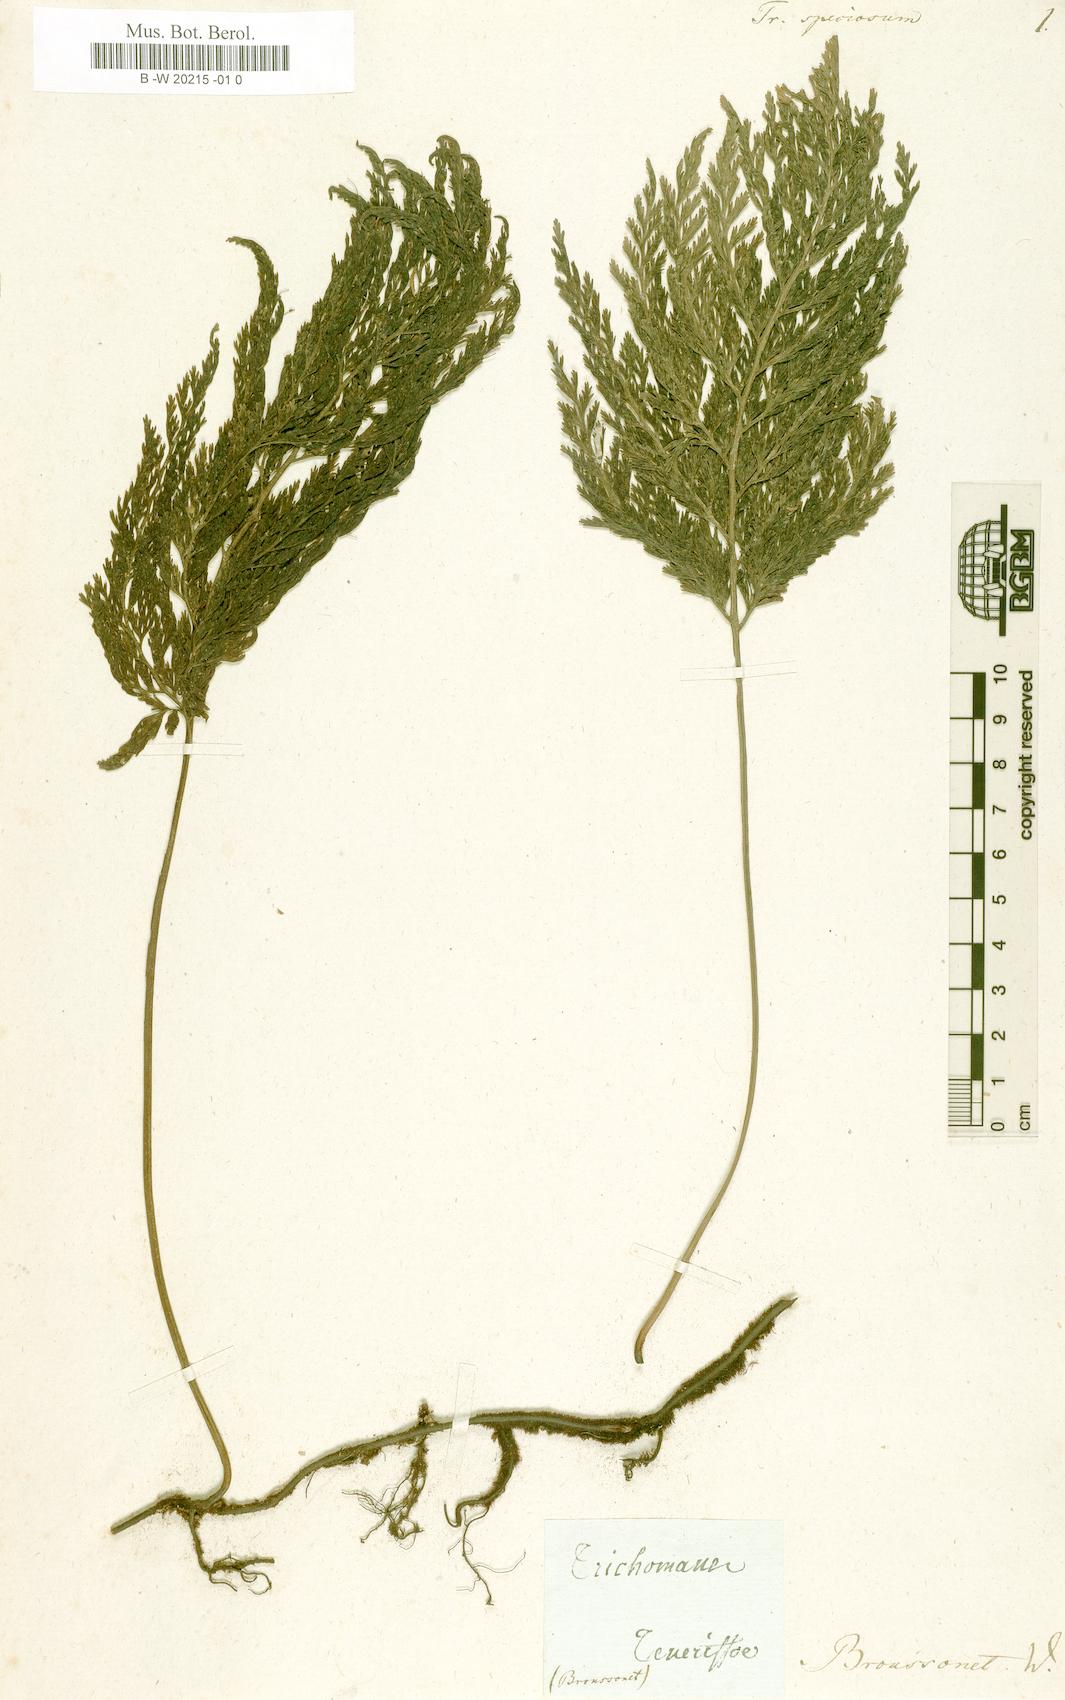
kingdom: Plantae
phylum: Tracheophyta
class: Polypodiopsida
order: Hymenophyllales
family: Hymenophyllaceae
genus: Vandenboschia
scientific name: Vandenboschia speciosa
